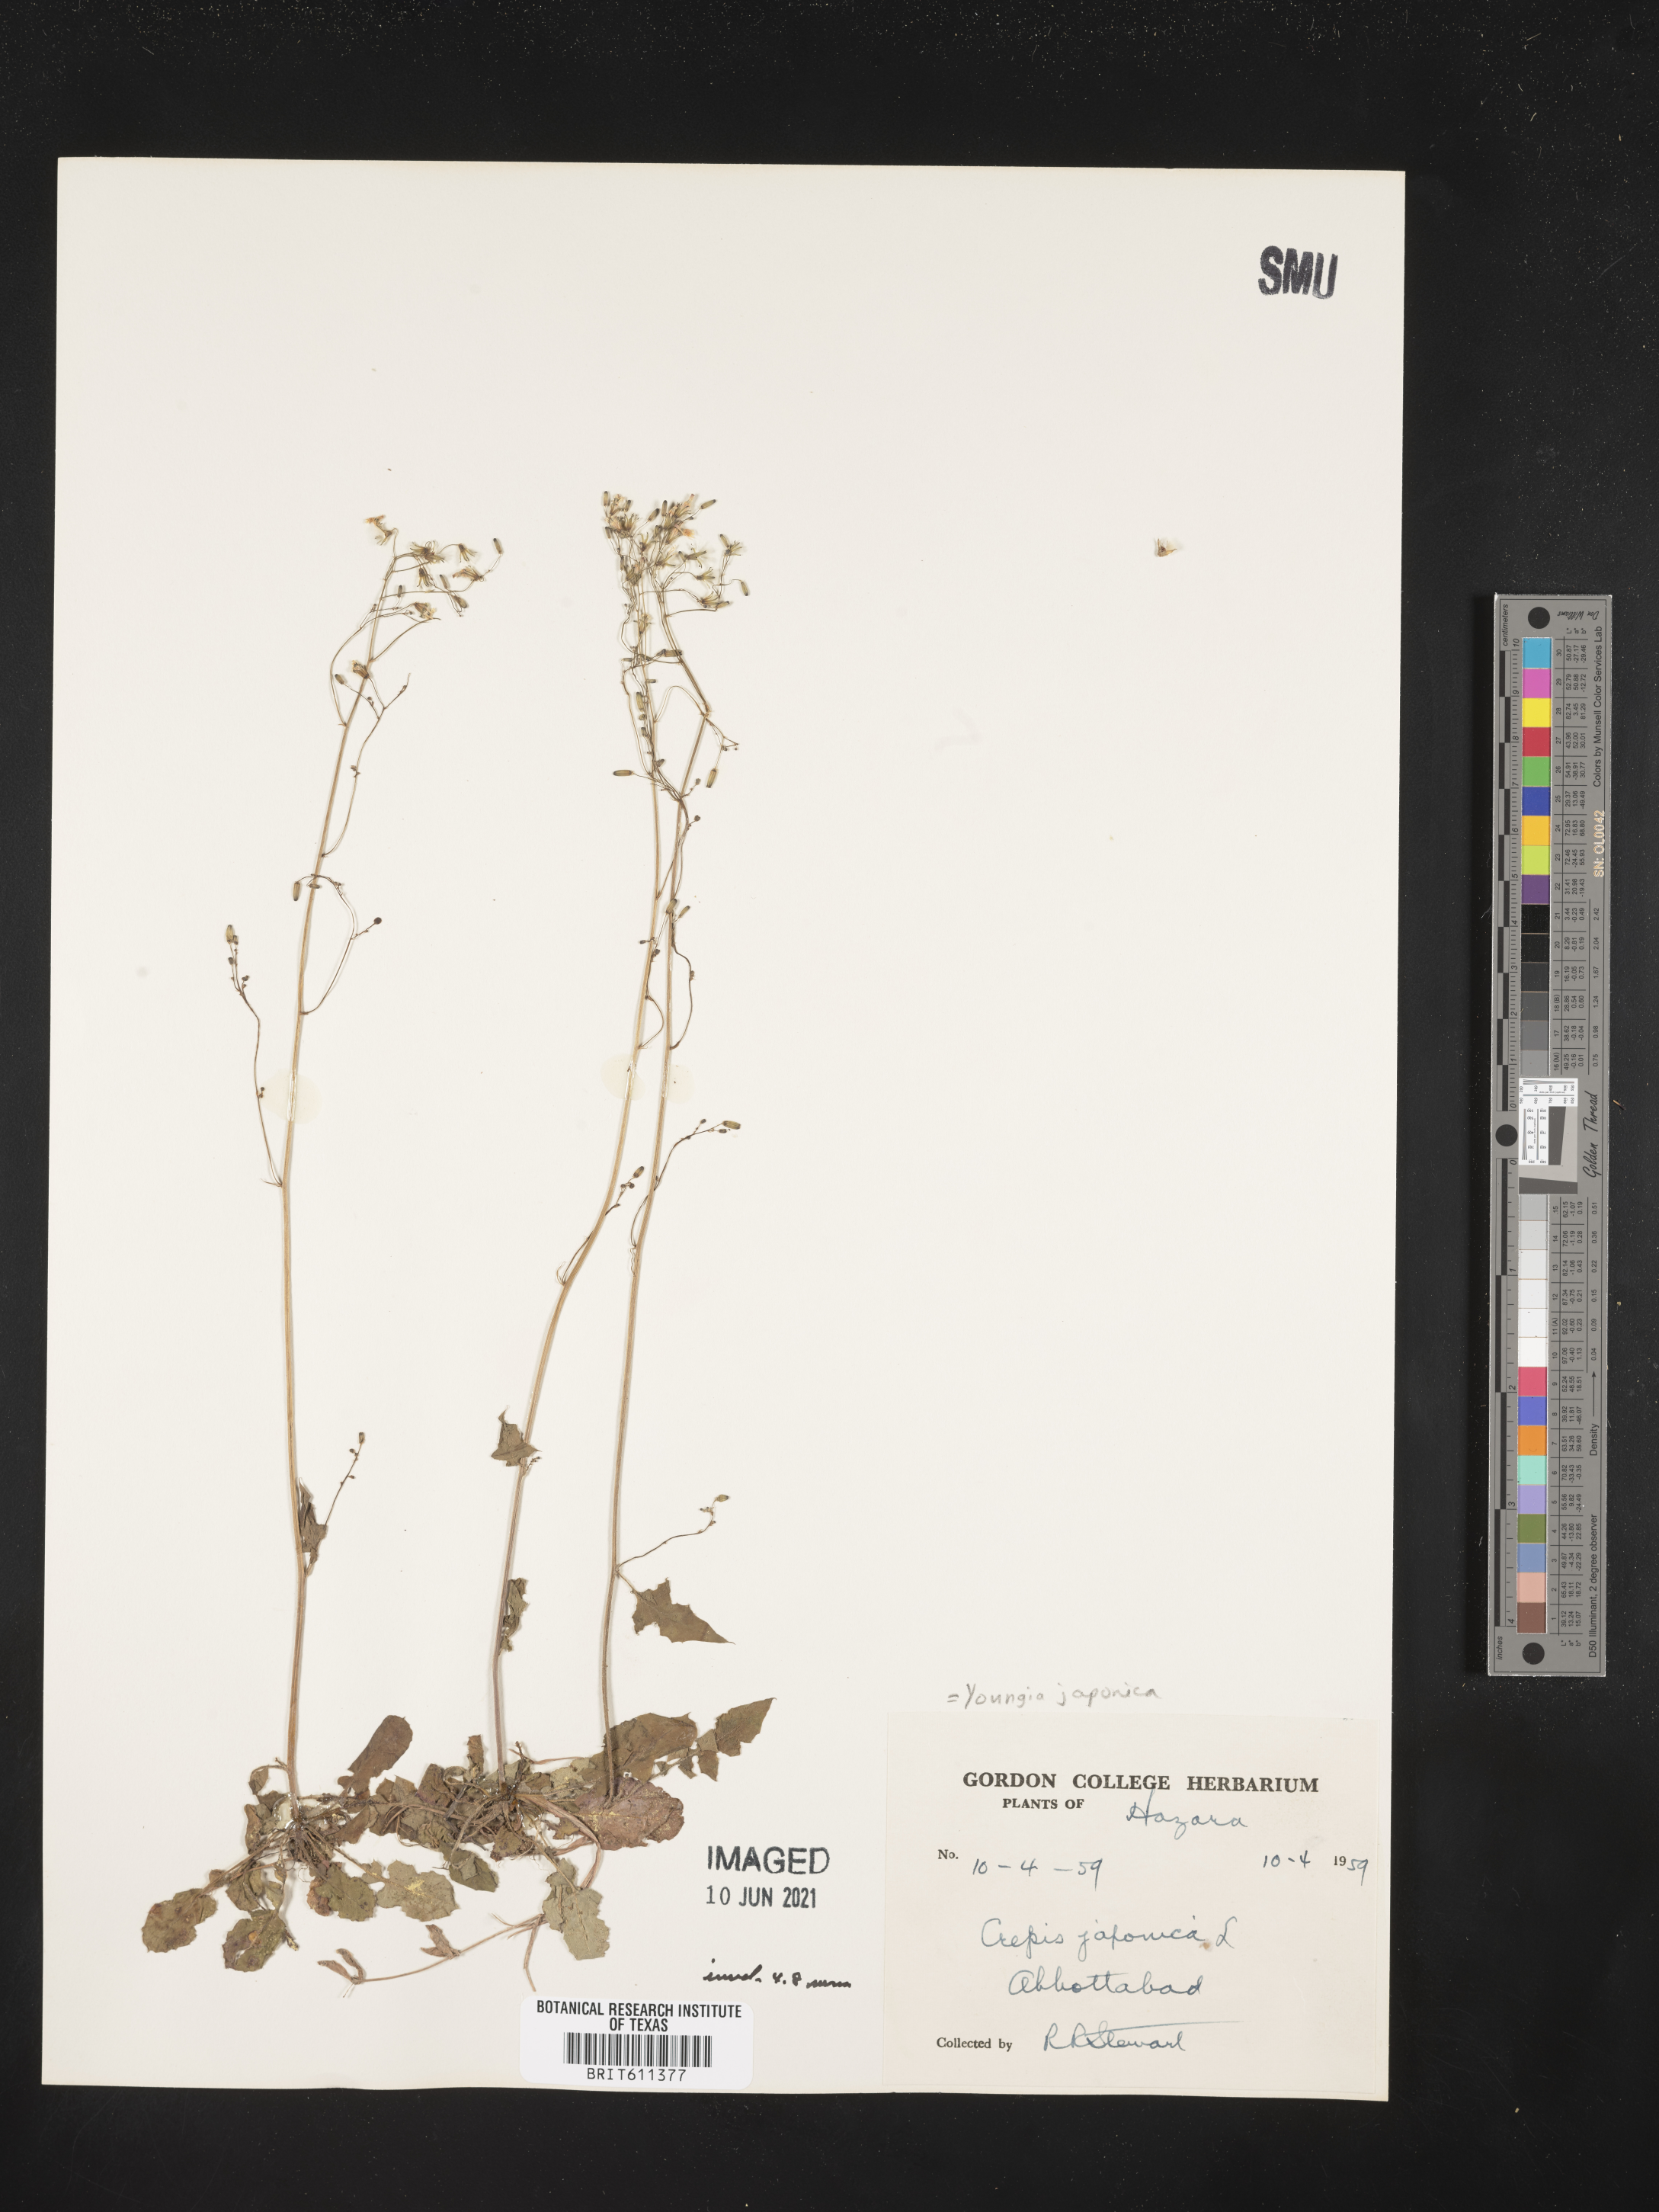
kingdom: Plantae
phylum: Tracheophyta
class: Magnoliopsida
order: Asterales
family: Asteraceae
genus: Youngia
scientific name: Youngia japonica
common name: Oriental false hawksbeard
